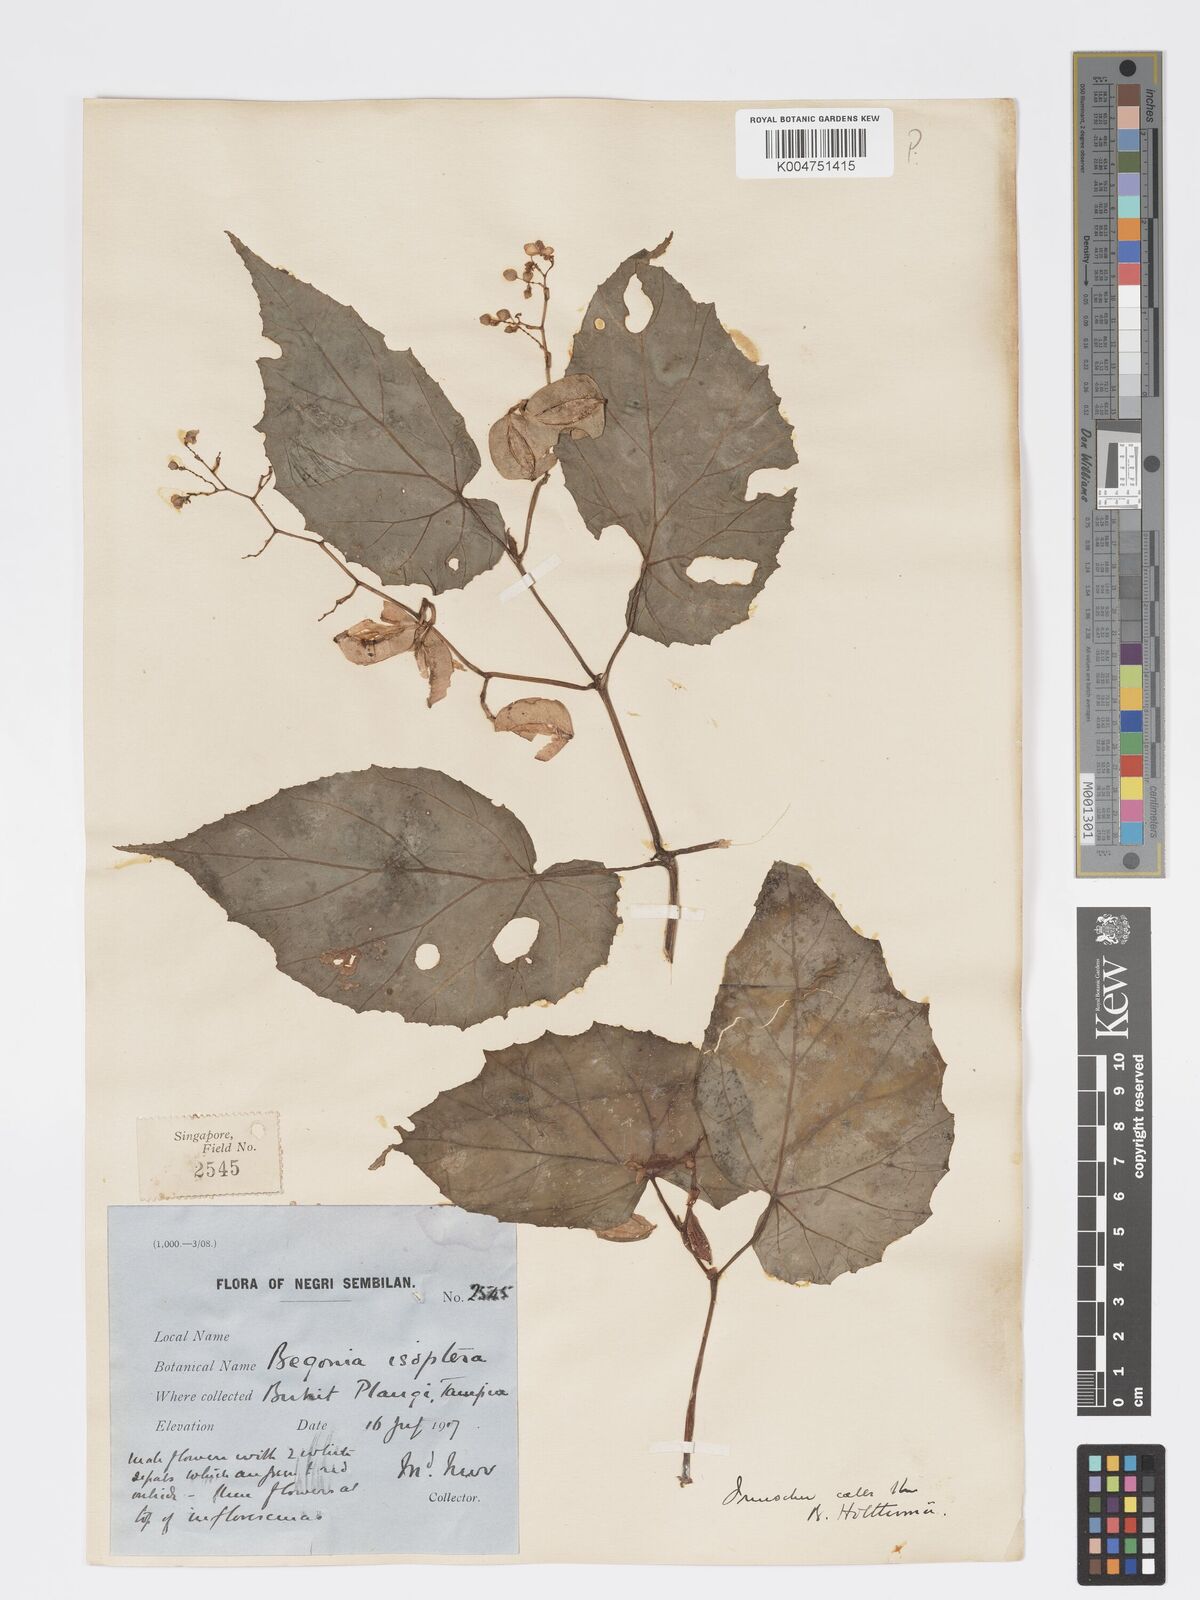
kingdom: Plantae
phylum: Tracheophyta
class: Magnoliopsida
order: Cucurbitales
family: Begoniaceae
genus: Begonia
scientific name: Begonia holttumii
